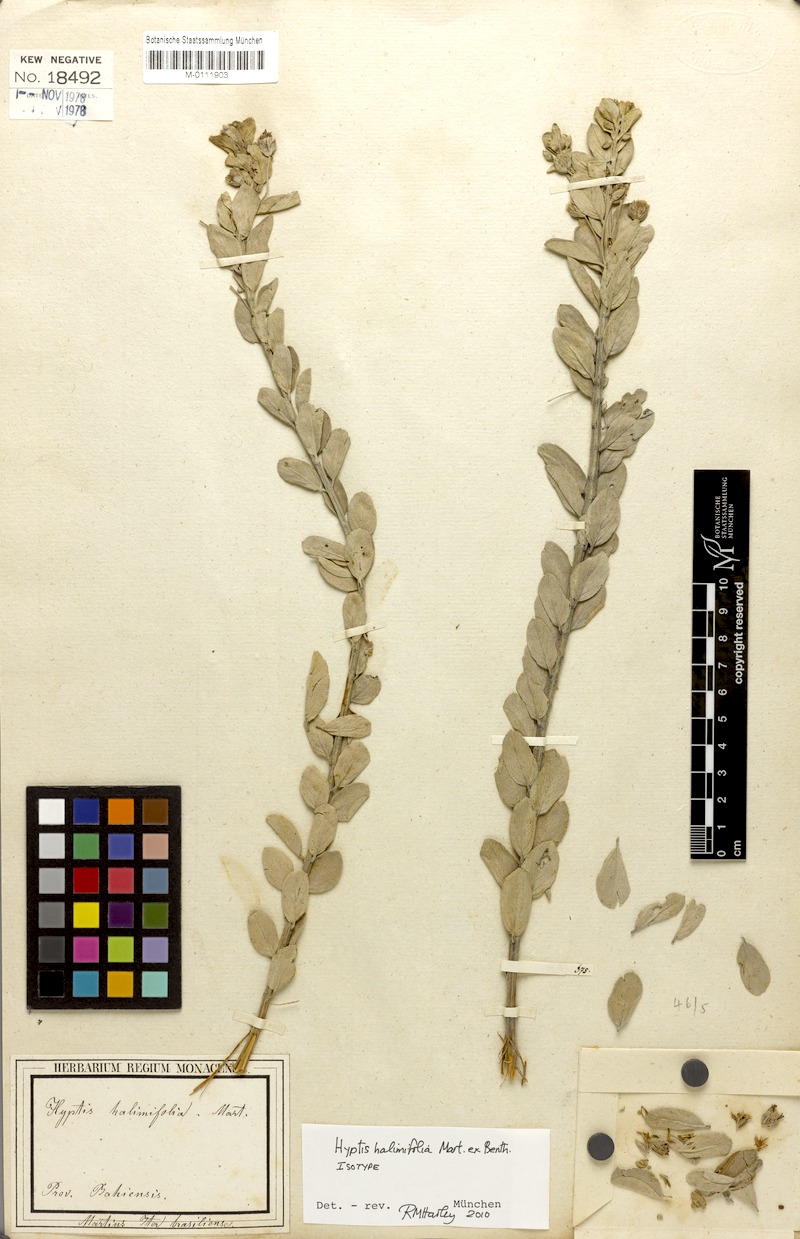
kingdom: Plantae
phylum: Tracheophyta
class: Magnoliopsida
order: Lamiales
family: Lamiaceae
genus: Oocephalus
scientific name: Oocephalus halimifolius
